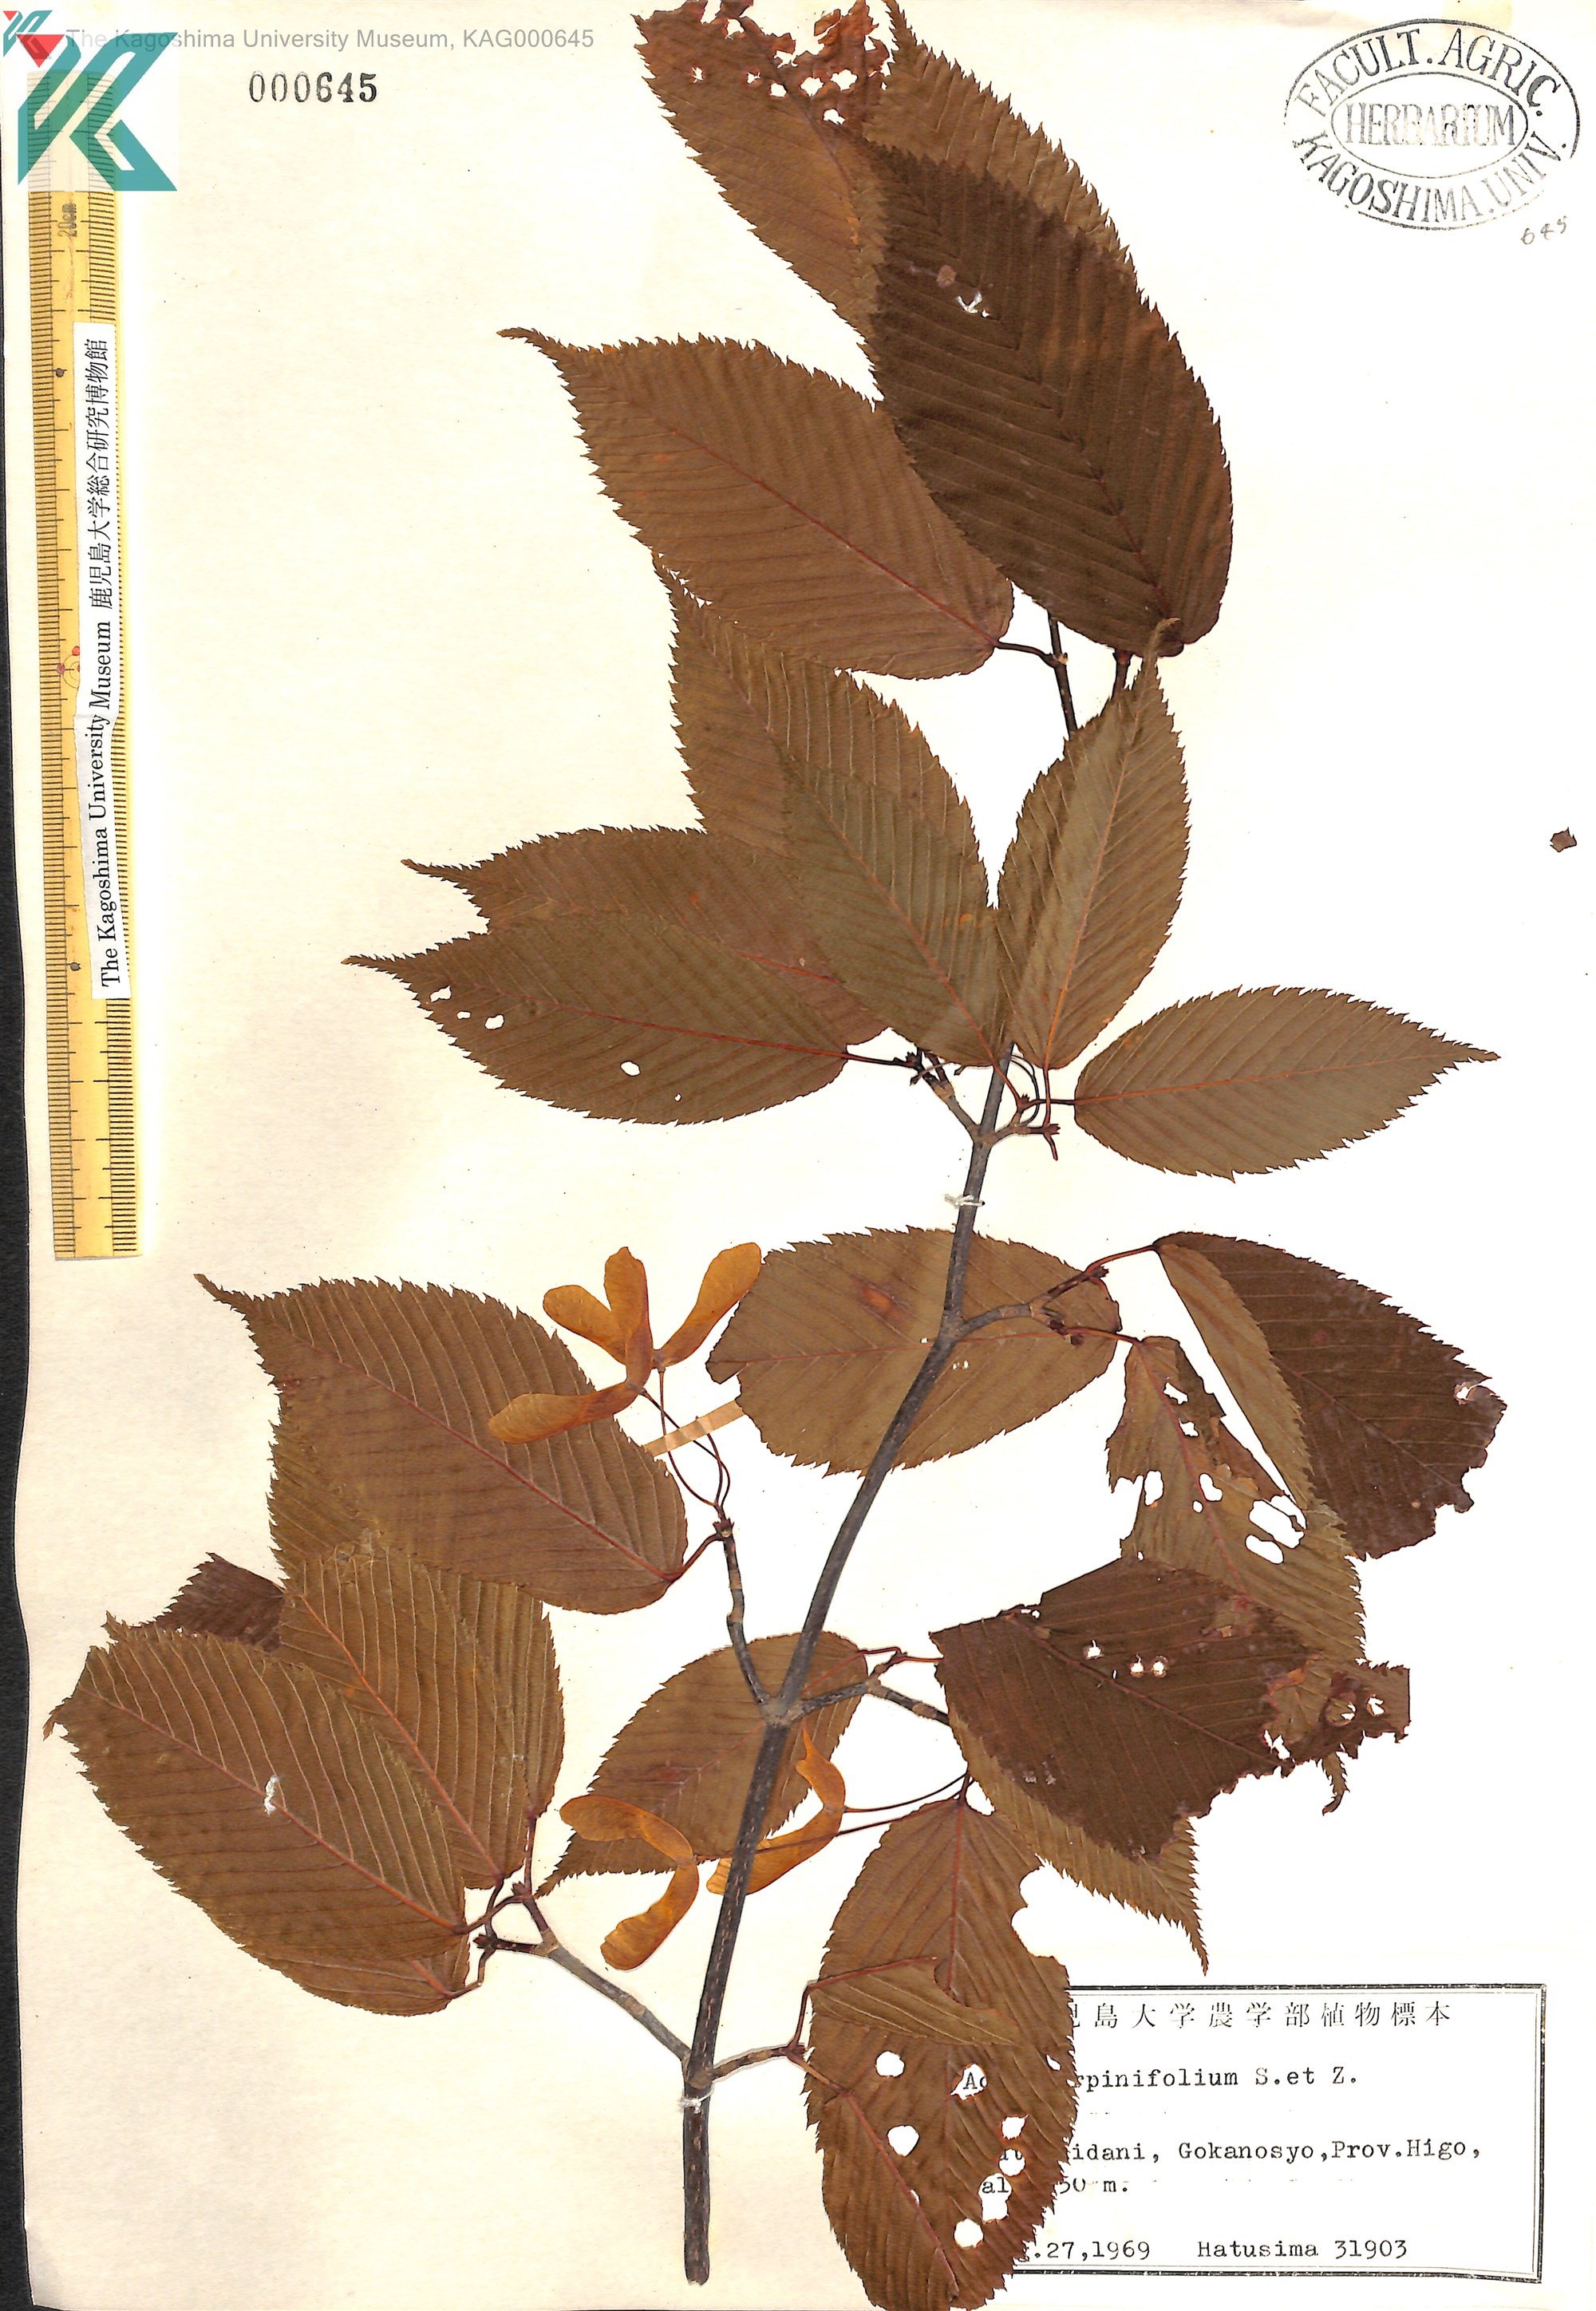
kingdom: Plantae
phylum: Tracheophyta
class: Magnoliopsida
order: Sapindales
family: Sapindaceae
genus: Acer
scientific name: Acer carpinifolium
